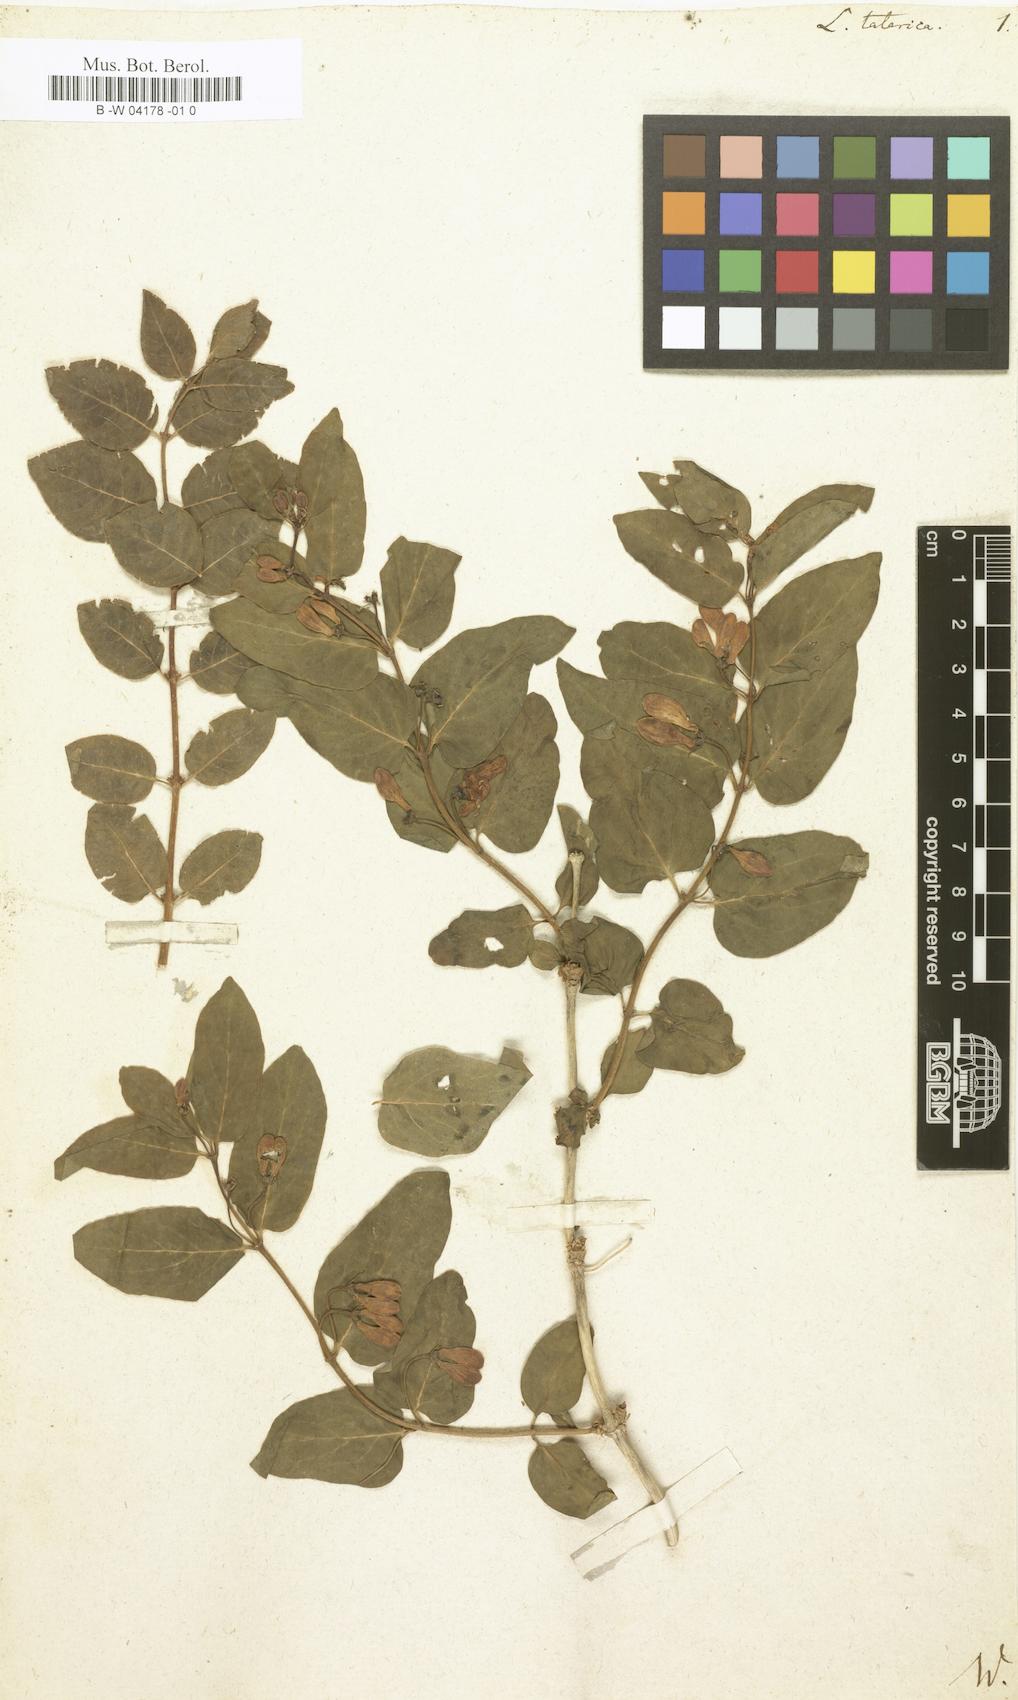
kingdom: Plantae
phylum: Tracheophyta
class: Magnoliopsida
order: Dipsacales
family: Caprifoliaceae
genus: Lonicera
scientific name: Lonicera tatarica
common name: Tatarian honeysuckle
